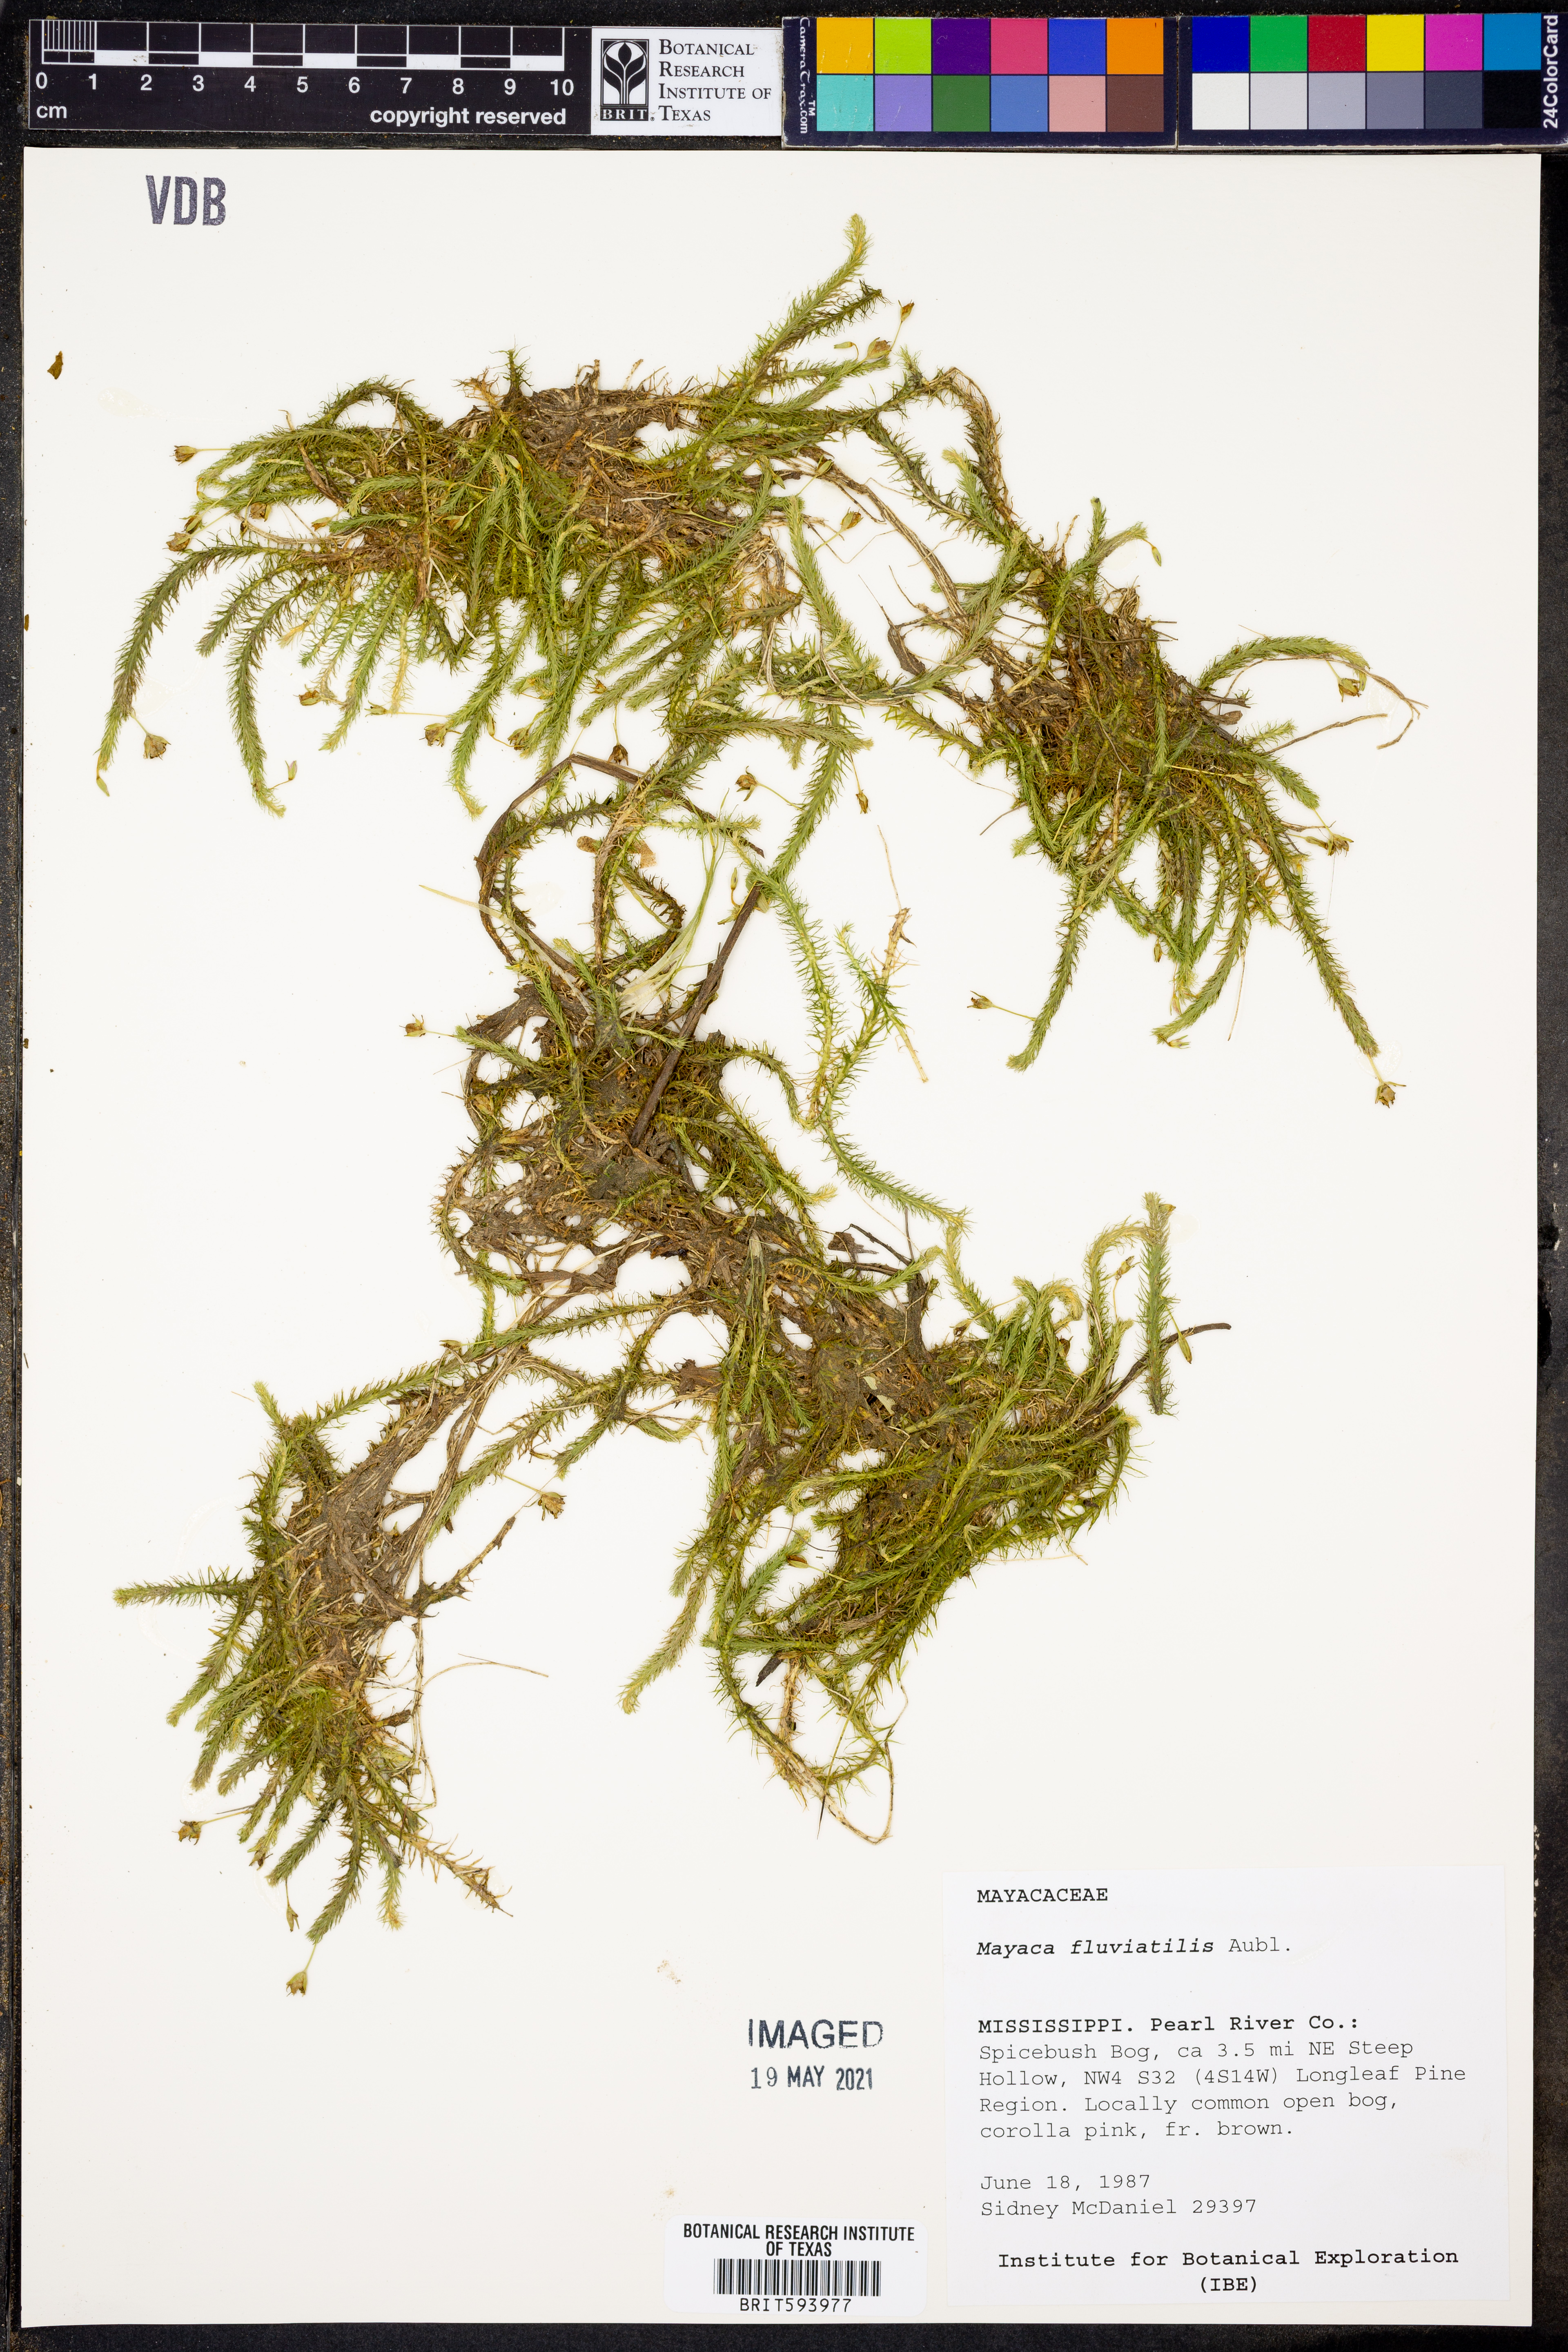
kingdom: Plantae
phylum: Tracheophyta
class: Liliopsida
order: Poales
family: Mayacaceae
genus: Mayaca
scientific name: Mayaca fluviatilis
